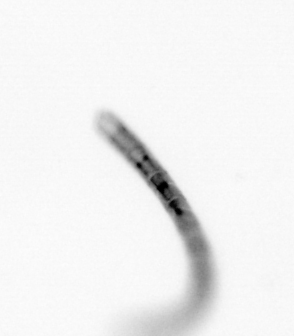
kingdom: Chromista
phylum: Ochrophyta
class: Bacillariophyceae
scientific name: Bacillariophyceae
